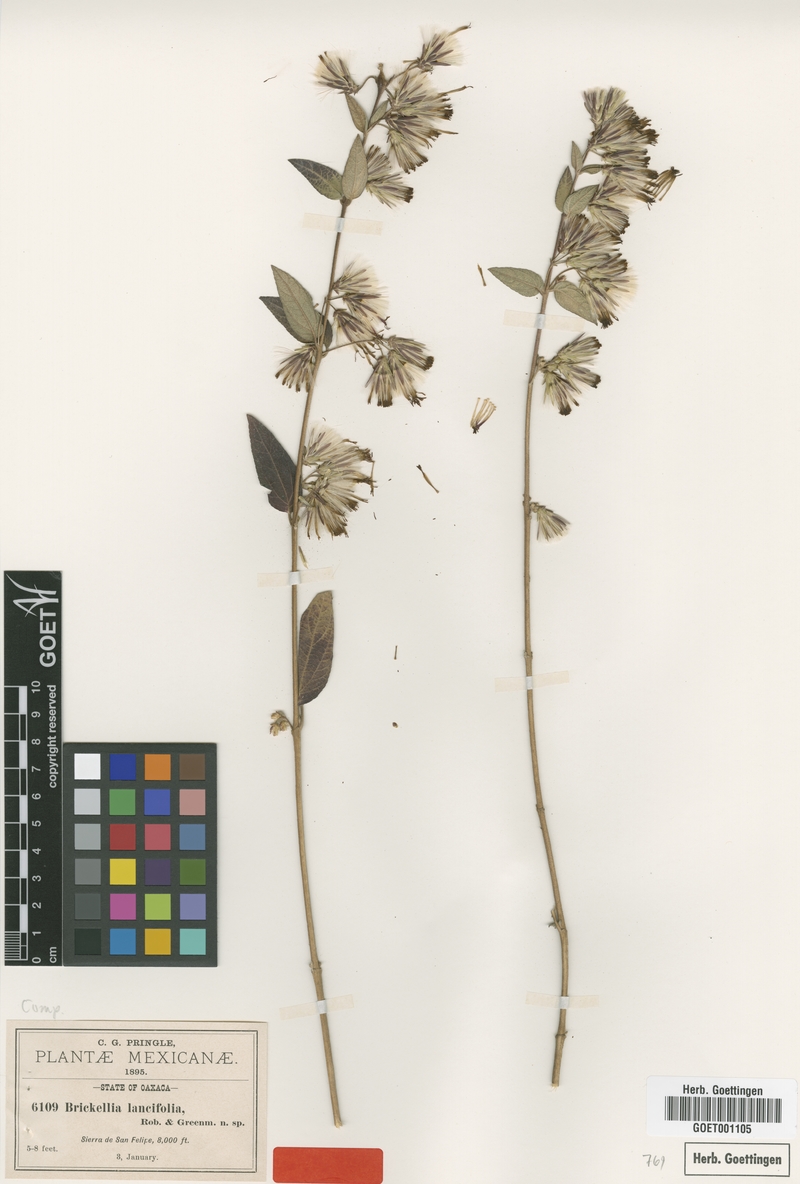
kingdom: Plantae
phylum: Tracheophyta
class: Magnoliopsida
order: Asterales
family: Asteraceae
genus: Brickellia
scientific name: Brickellia pendula
